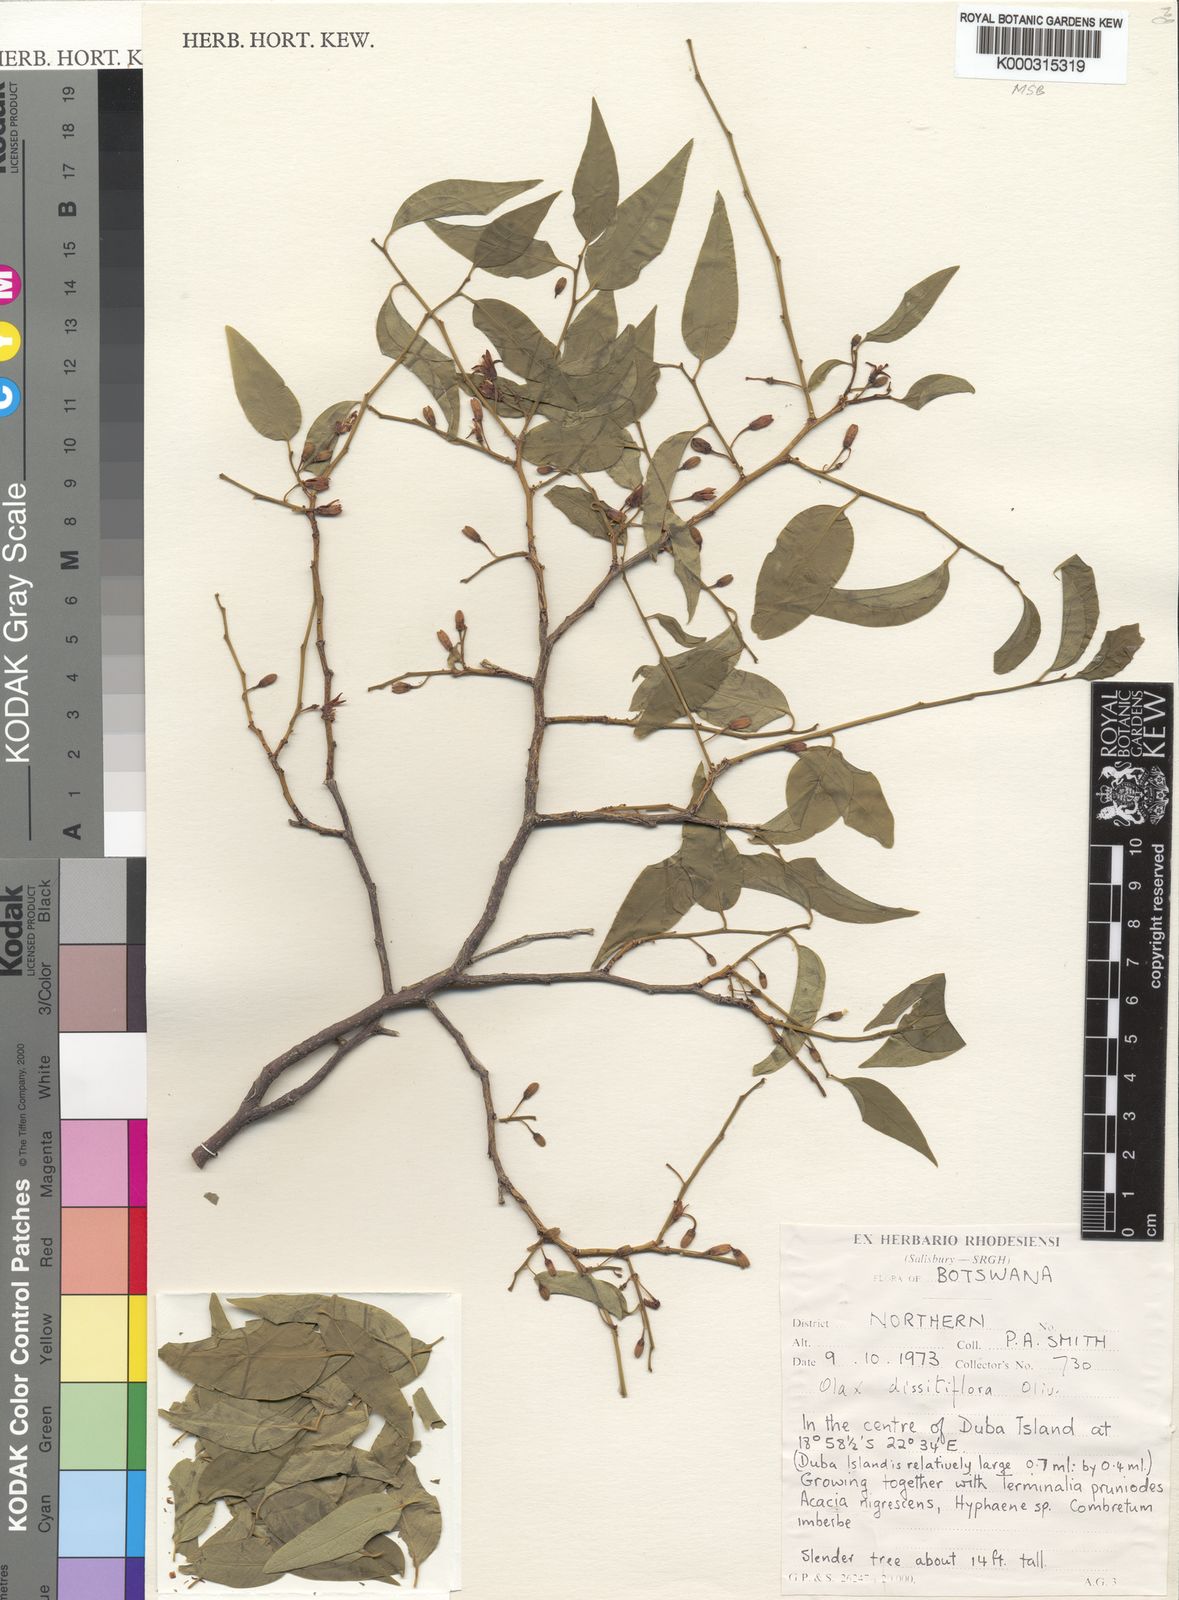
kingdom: Plantae
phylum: Tracheophyta
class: Magnoliopsida
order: Santalales
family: Olacaceae
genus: Olax
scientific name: Olax dissitiflora
